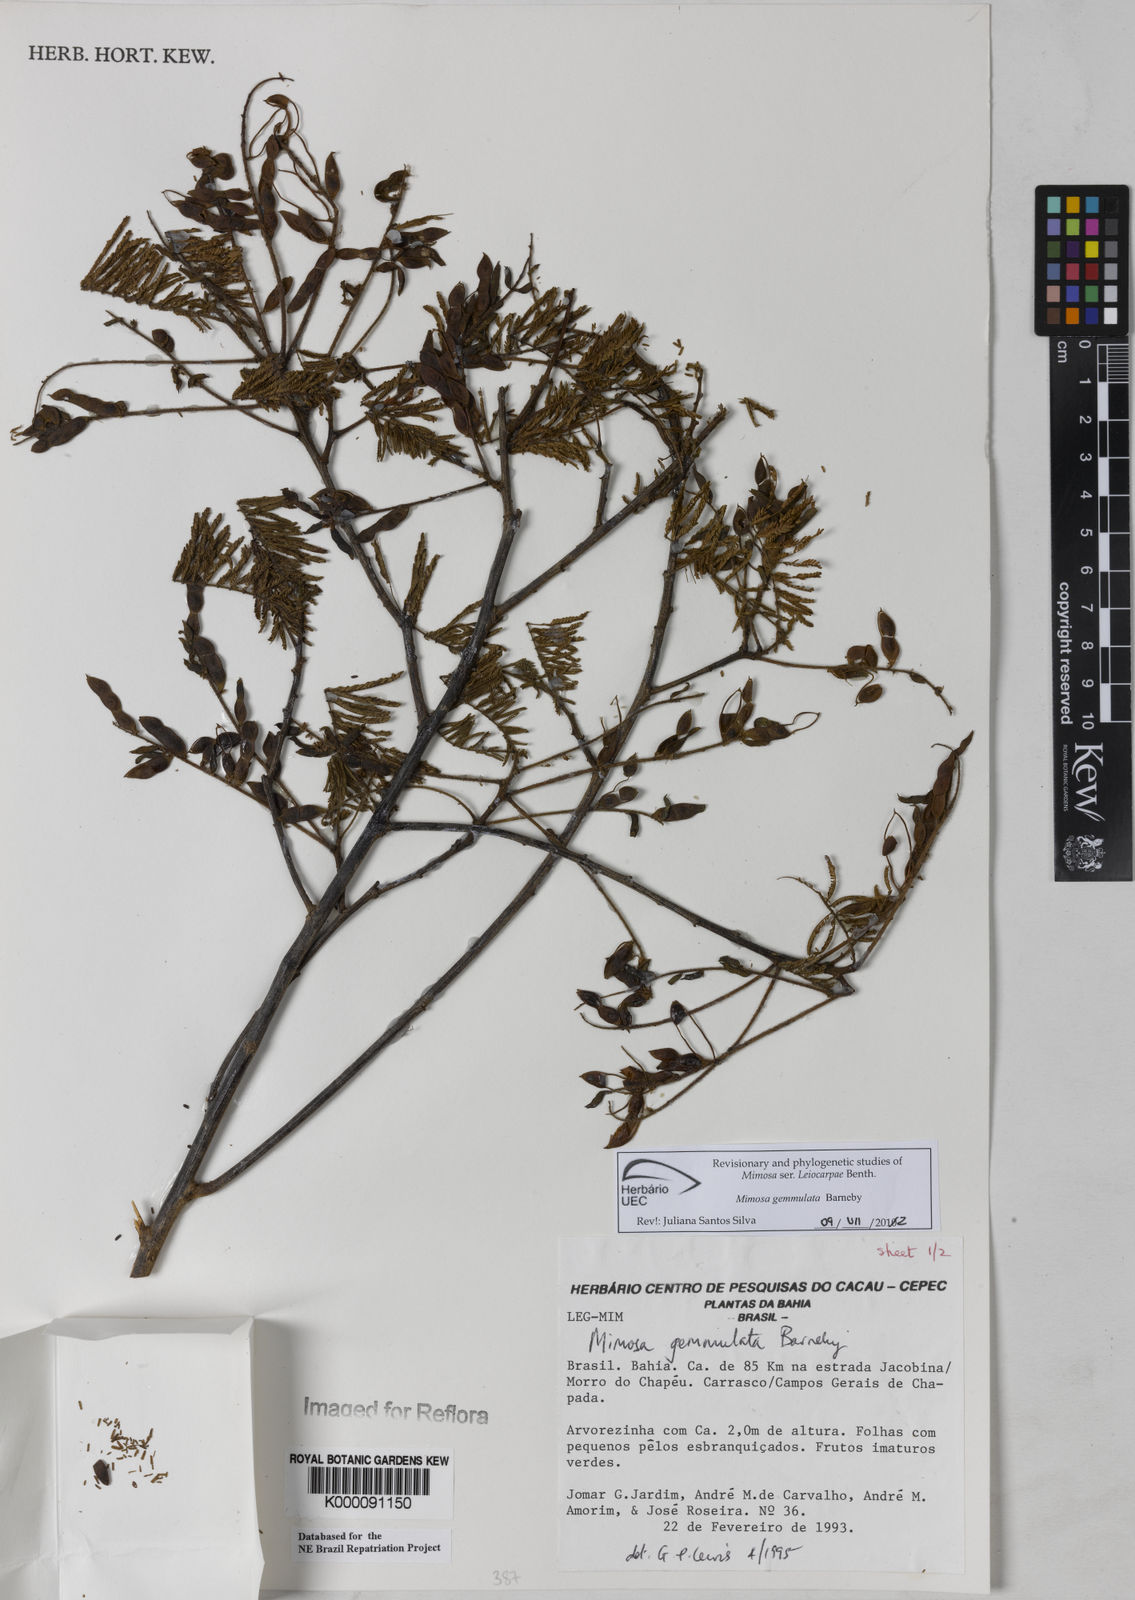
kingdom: Plantae
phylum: Tracheophyta
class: Magnoliopsida
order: Fabales
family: Fabaceae
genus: Mimosa
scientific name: Mimosa gemmulata
